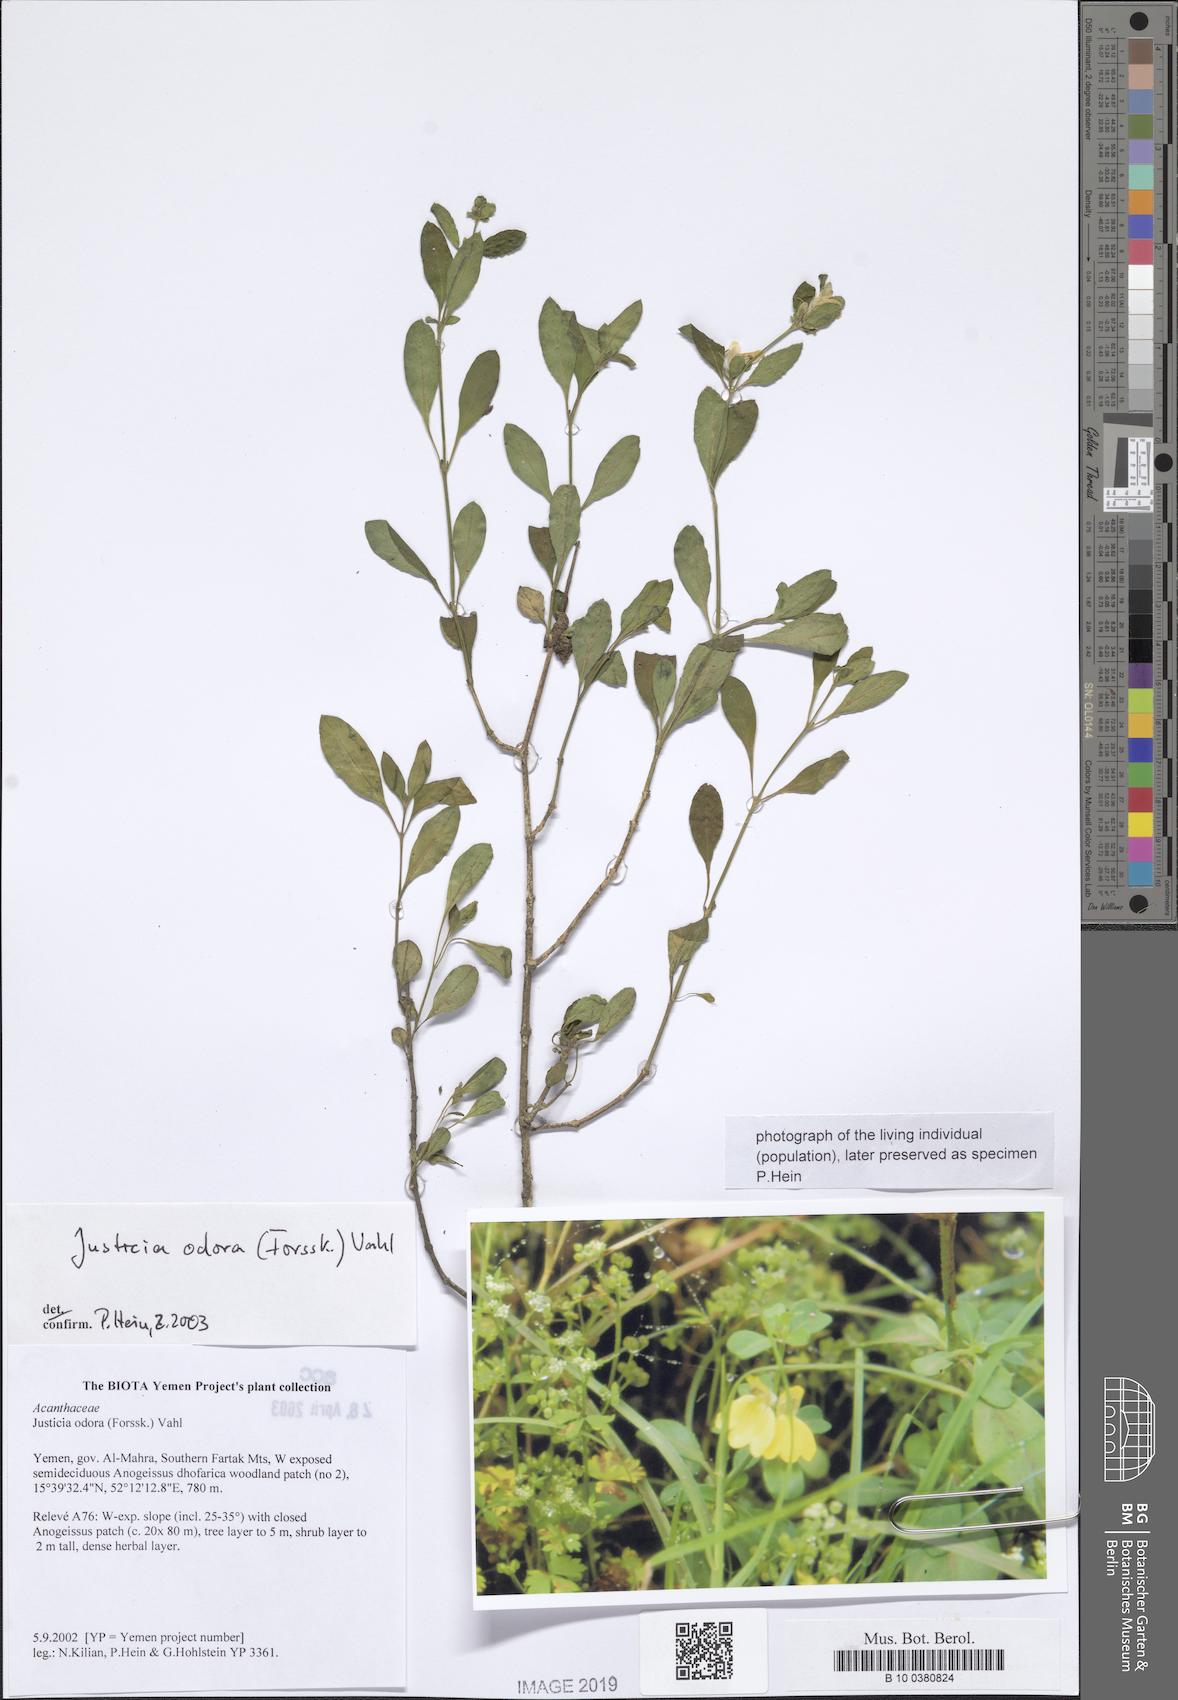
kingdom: Plantae
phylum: Tracheophyta
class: Magnoliopsida
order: Lamiales
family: Acanthaceae
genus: Justicia
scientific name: Justicia odora
